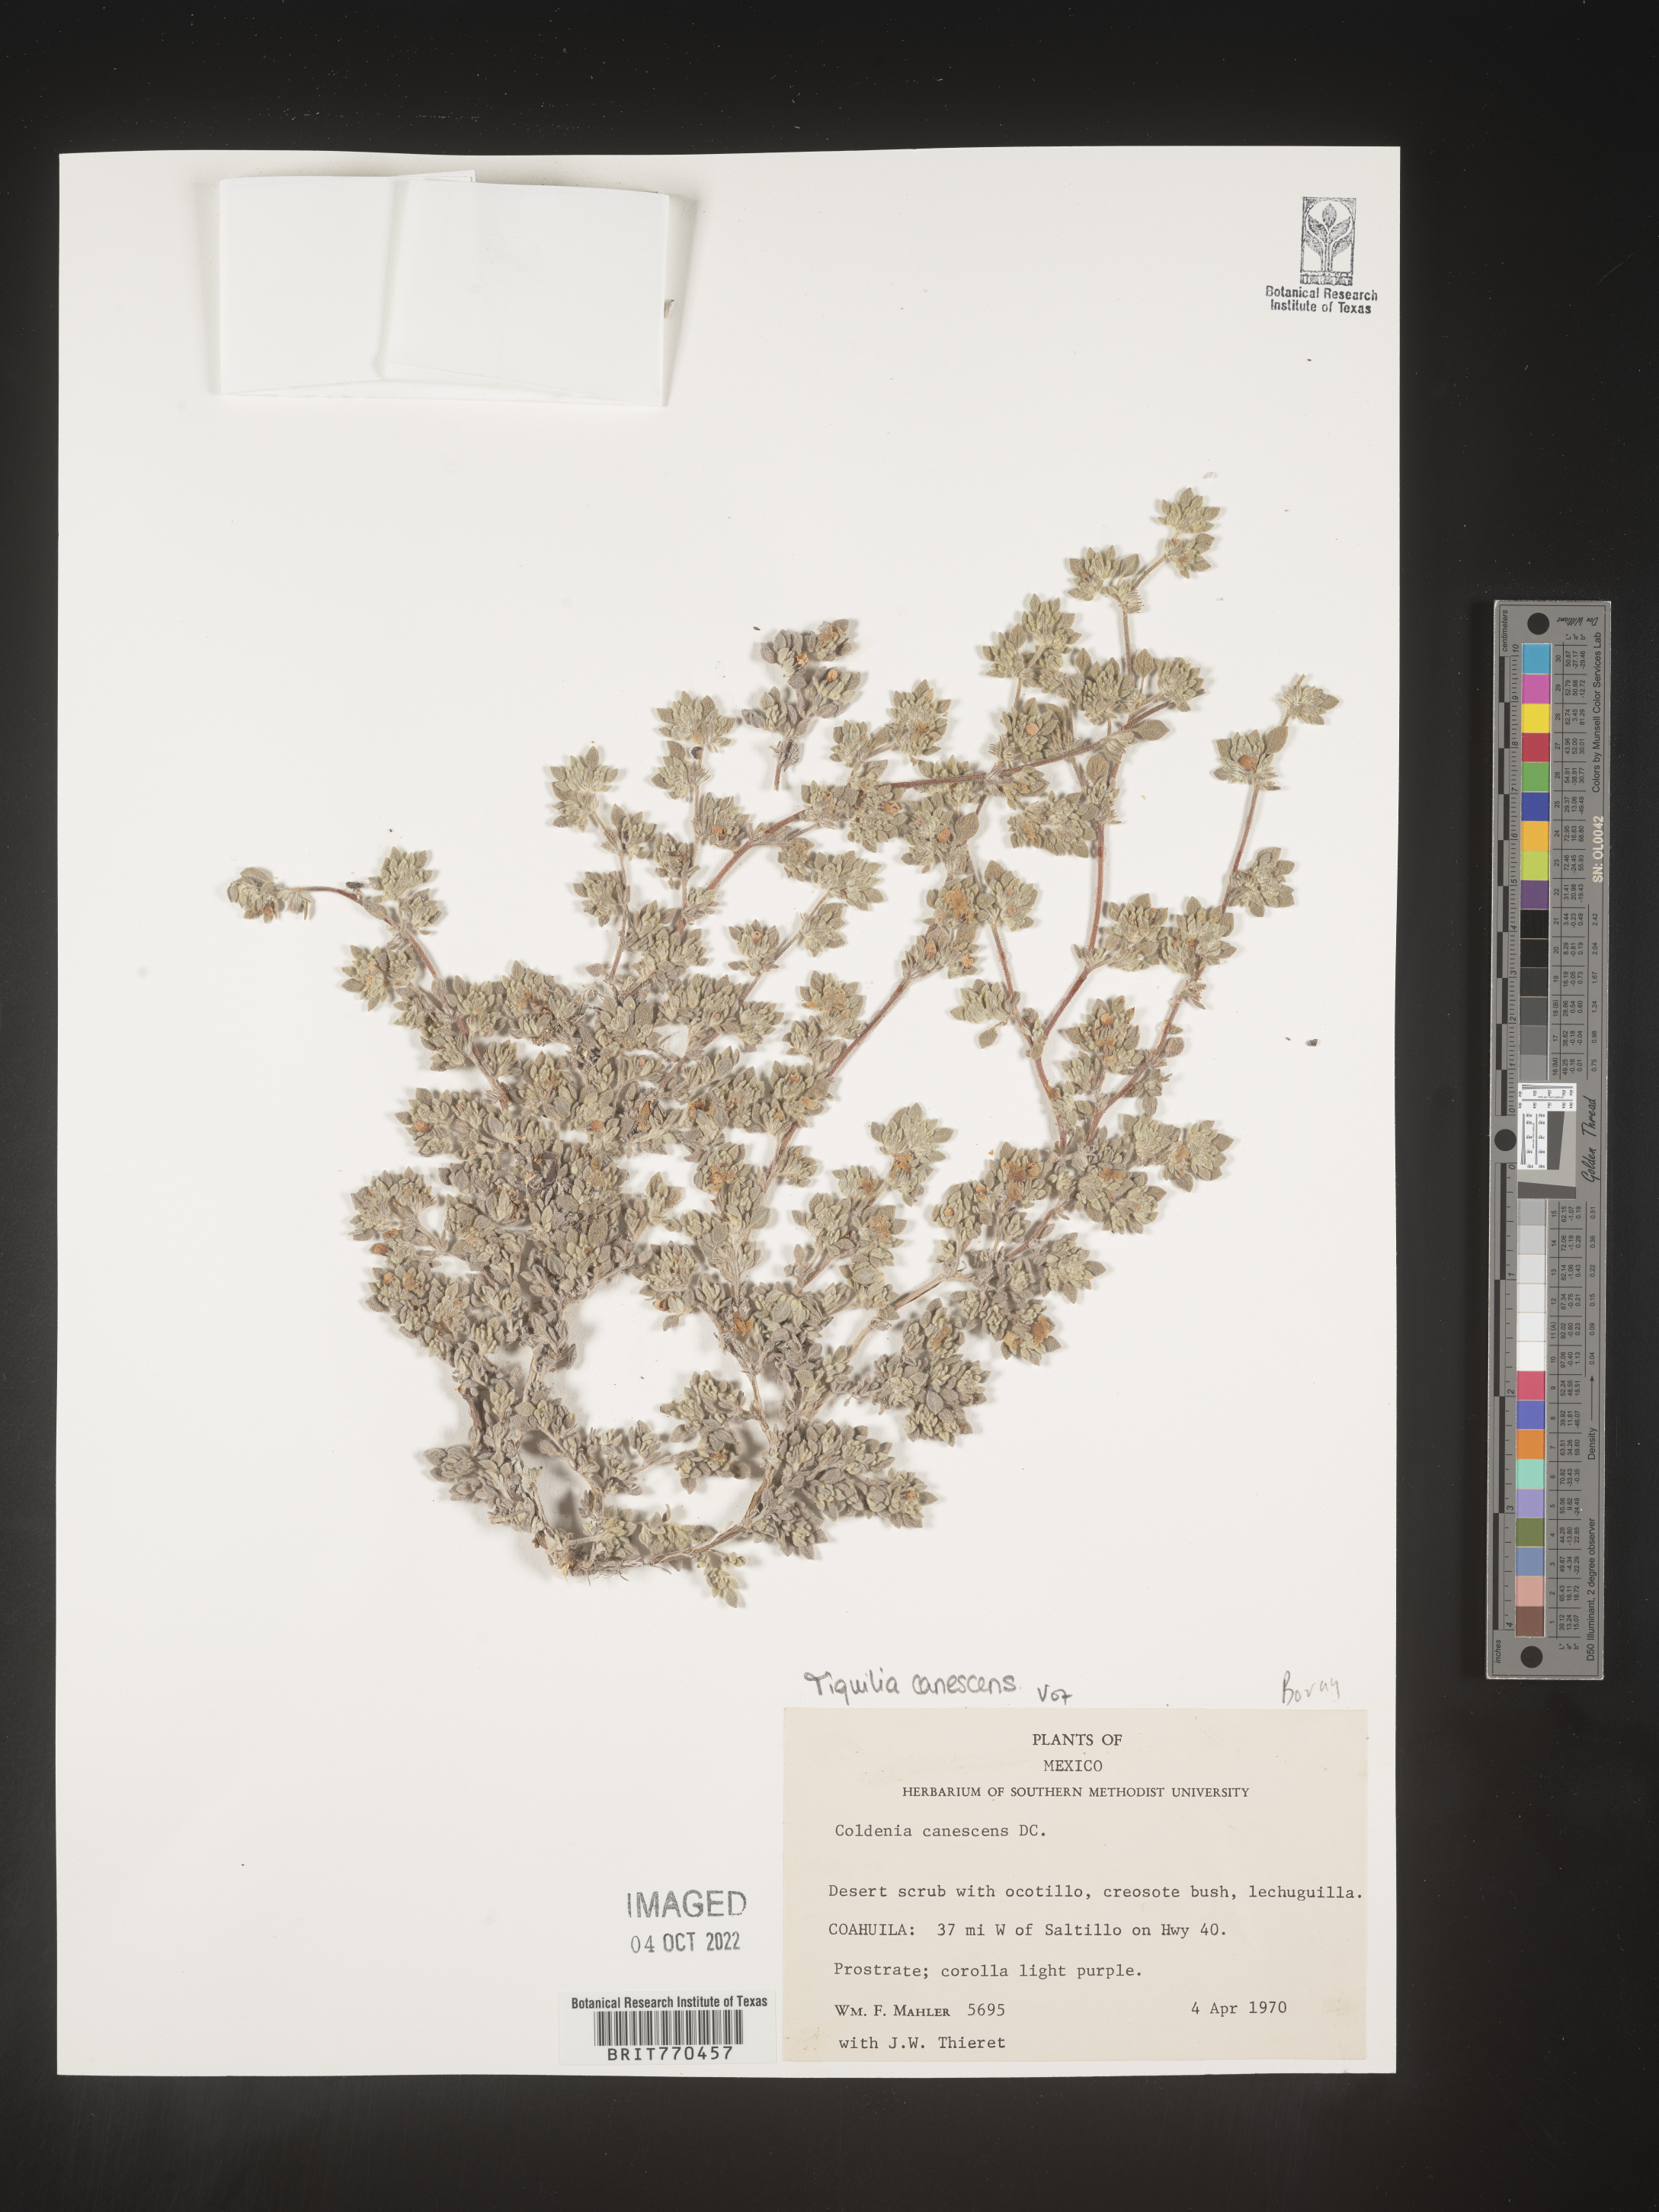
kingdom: Plantae
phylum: Tracheophyta
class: Magnoliopsida
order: Boraginales
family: Ehretiaceae
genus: Tiquilia
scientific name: Tiquilia
